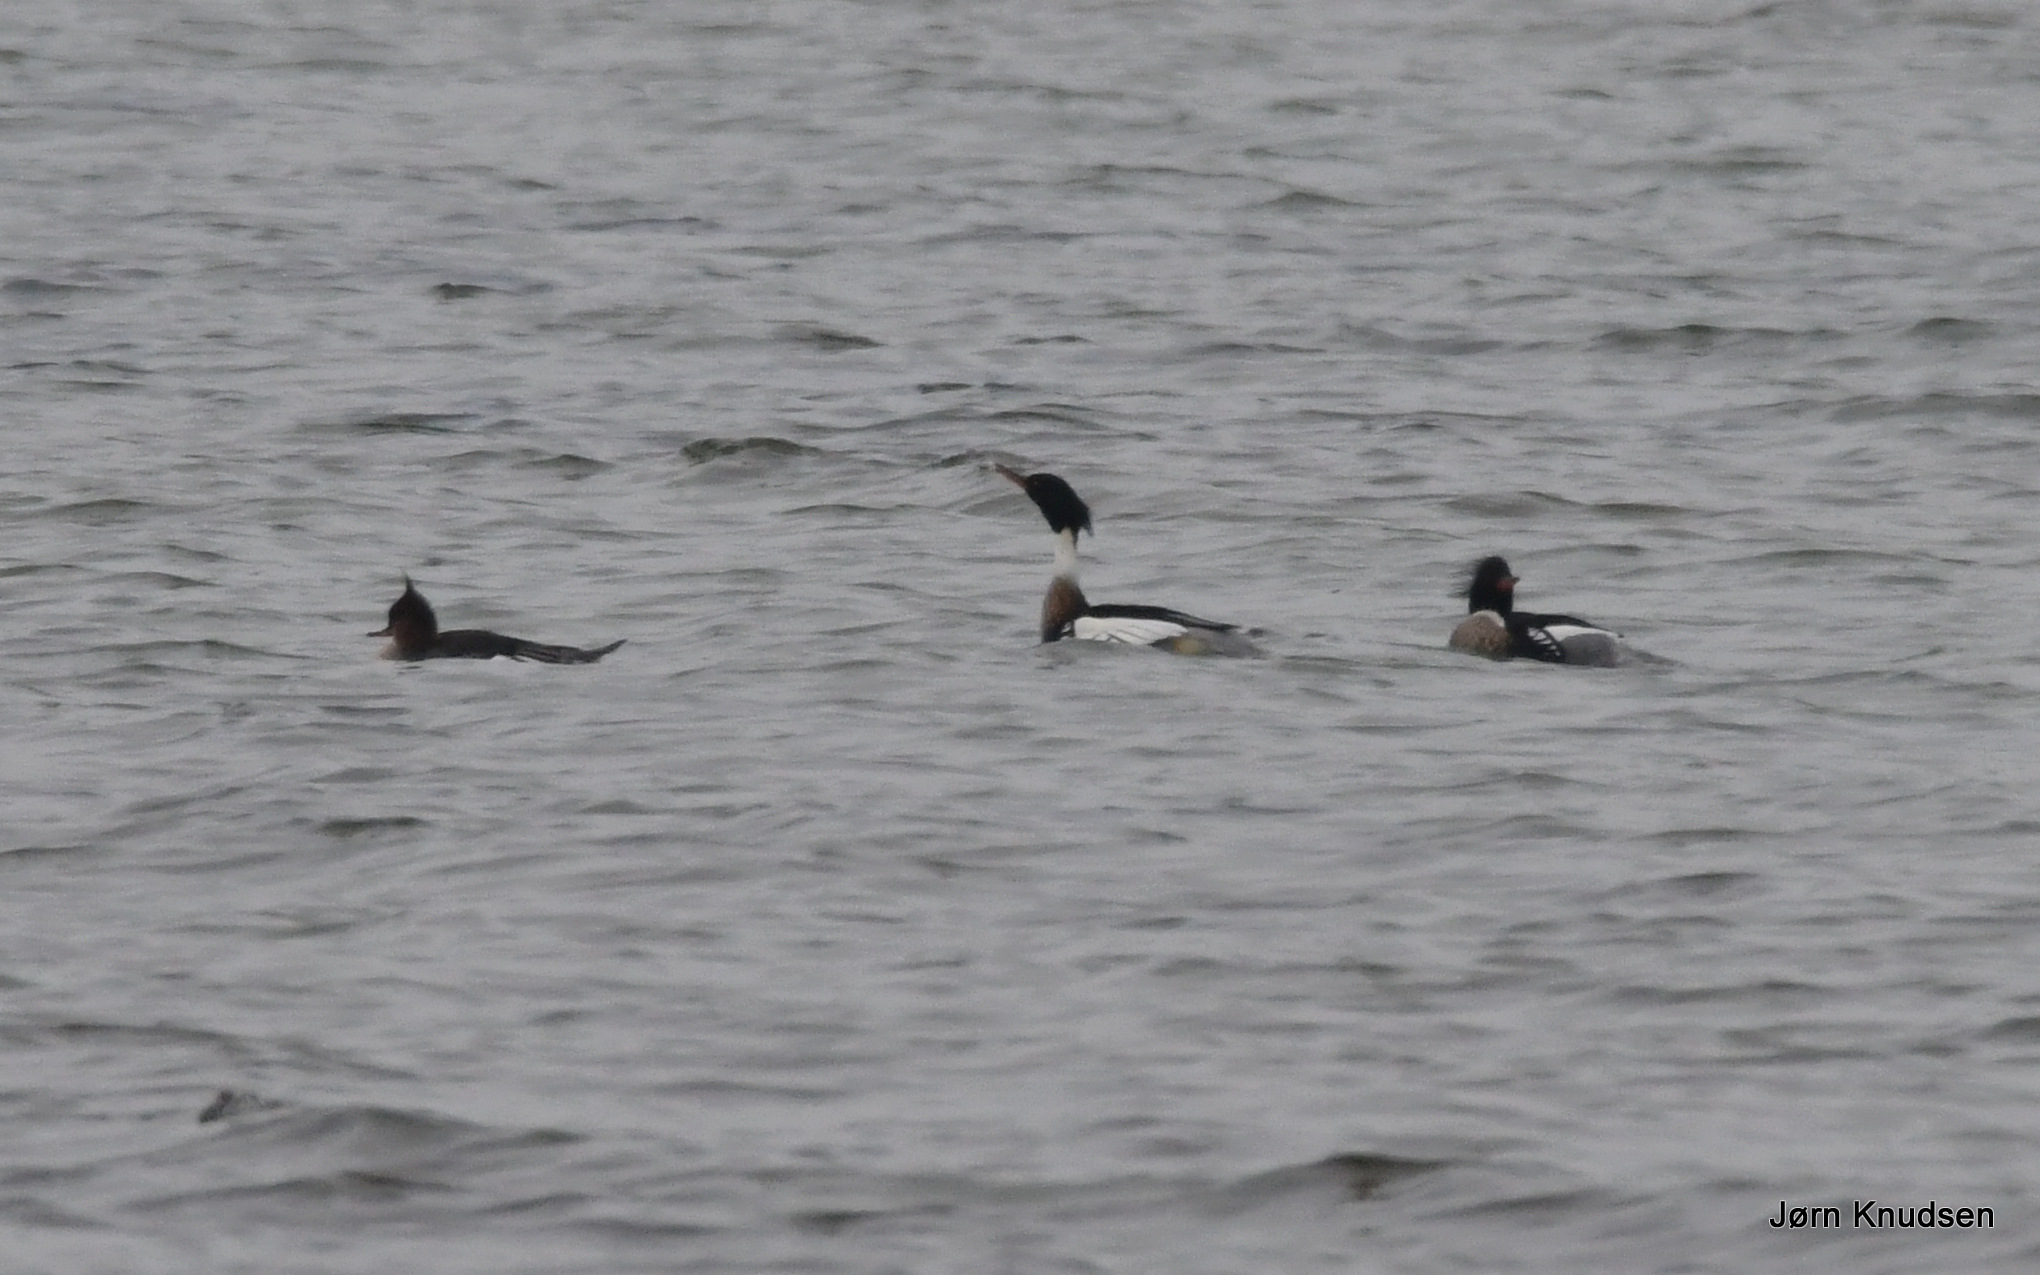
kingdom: Animalia
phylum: Chordata
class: Aves
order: Anseriformes
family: Anatidae
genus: Mergus
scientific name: Mergus serrator
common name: Toppet skallesluger
